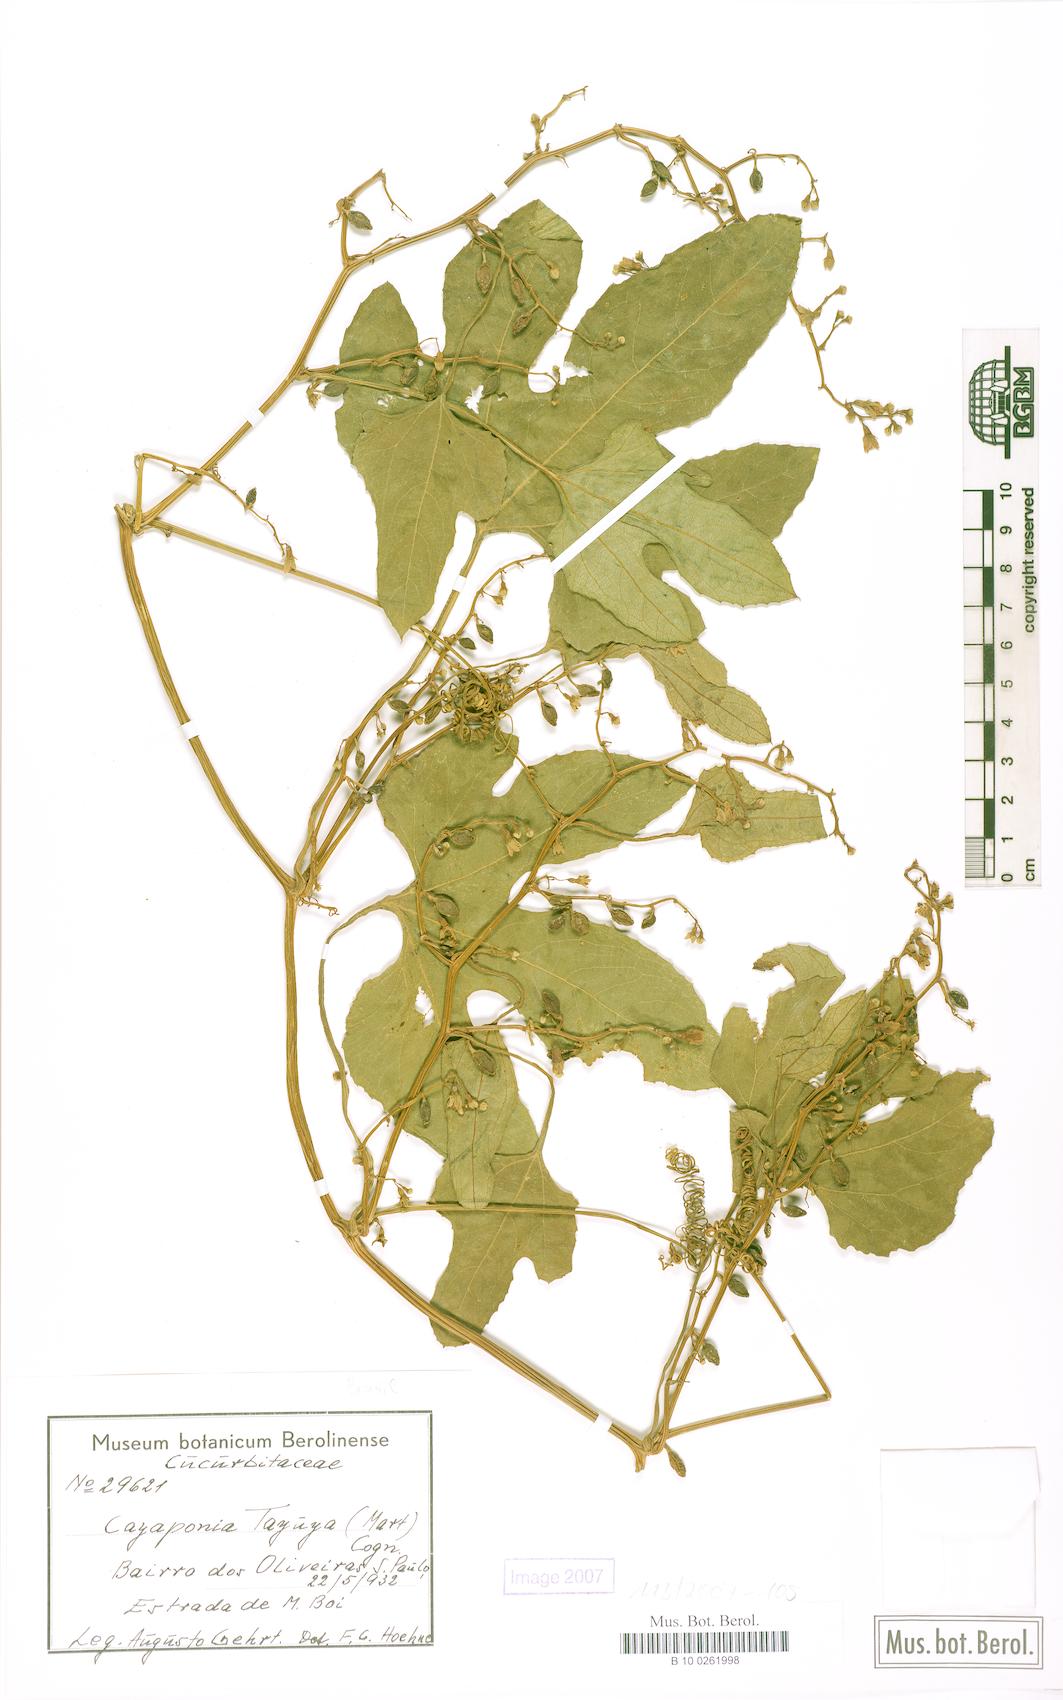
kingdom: Plantae
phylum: Tracheophyta
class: Magnoliopsida
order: Cucurbitales
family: Cucurbitaceae
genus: Cayaponia
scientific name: Cayaponia martiana
